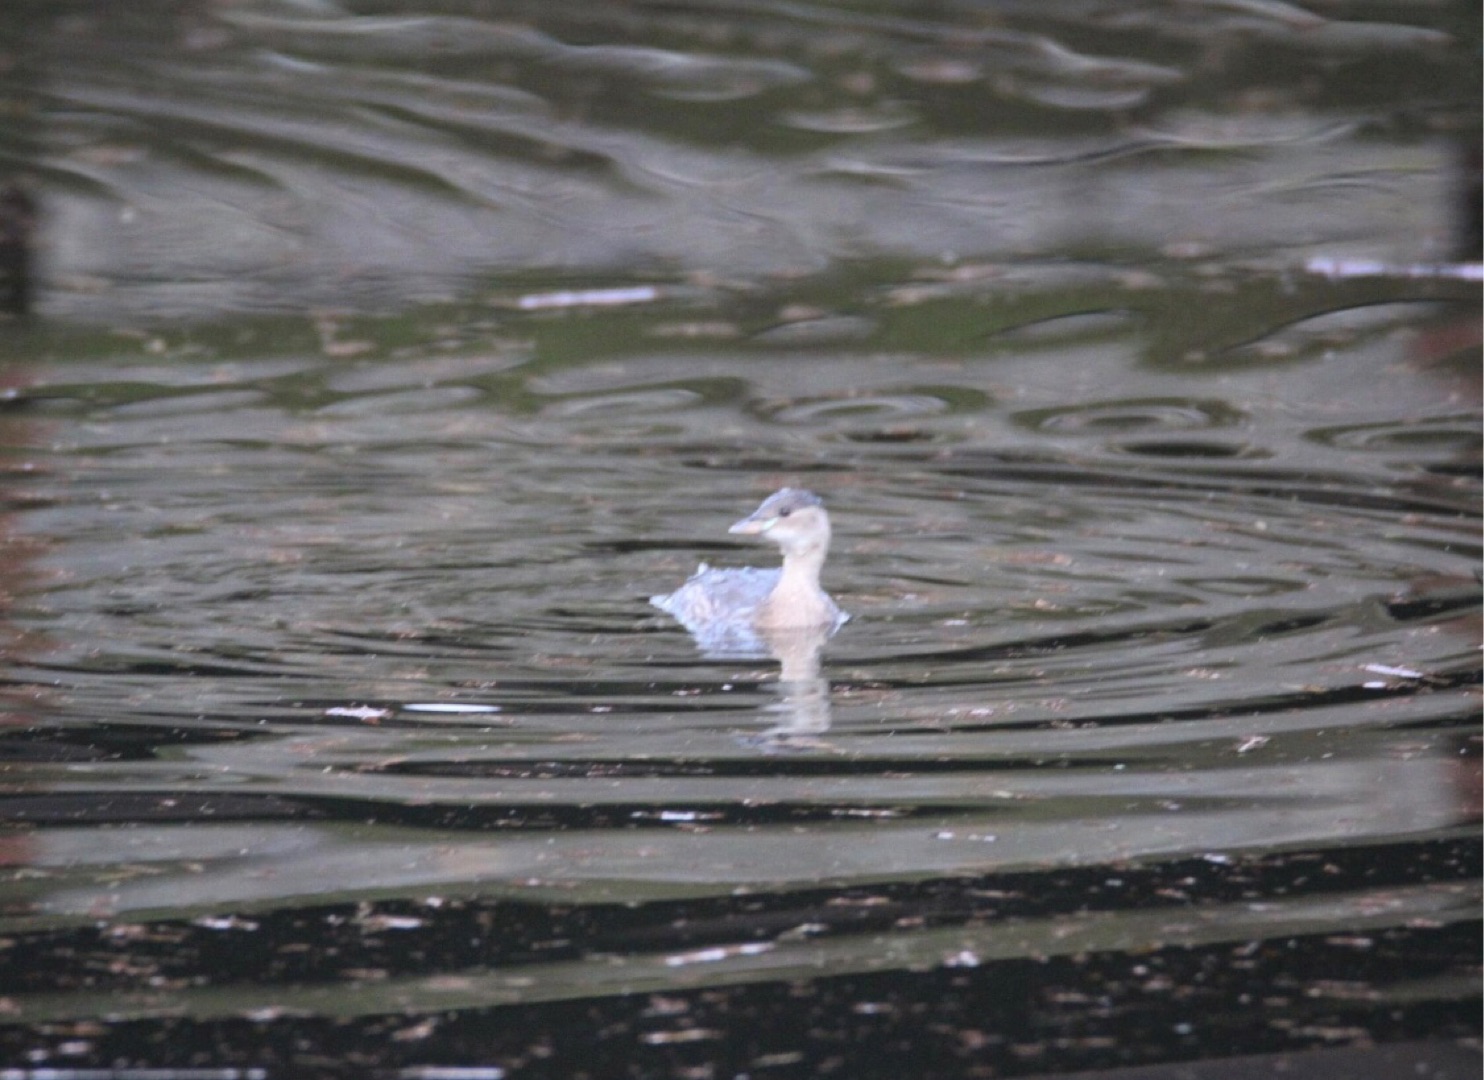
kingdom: Animalia
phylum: Chordata
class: Aves
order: Podicipediformes
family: Podicipedidae
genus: Tachybaptus
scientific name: Tachybaptus ruficollis
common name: Lille lappedykker
